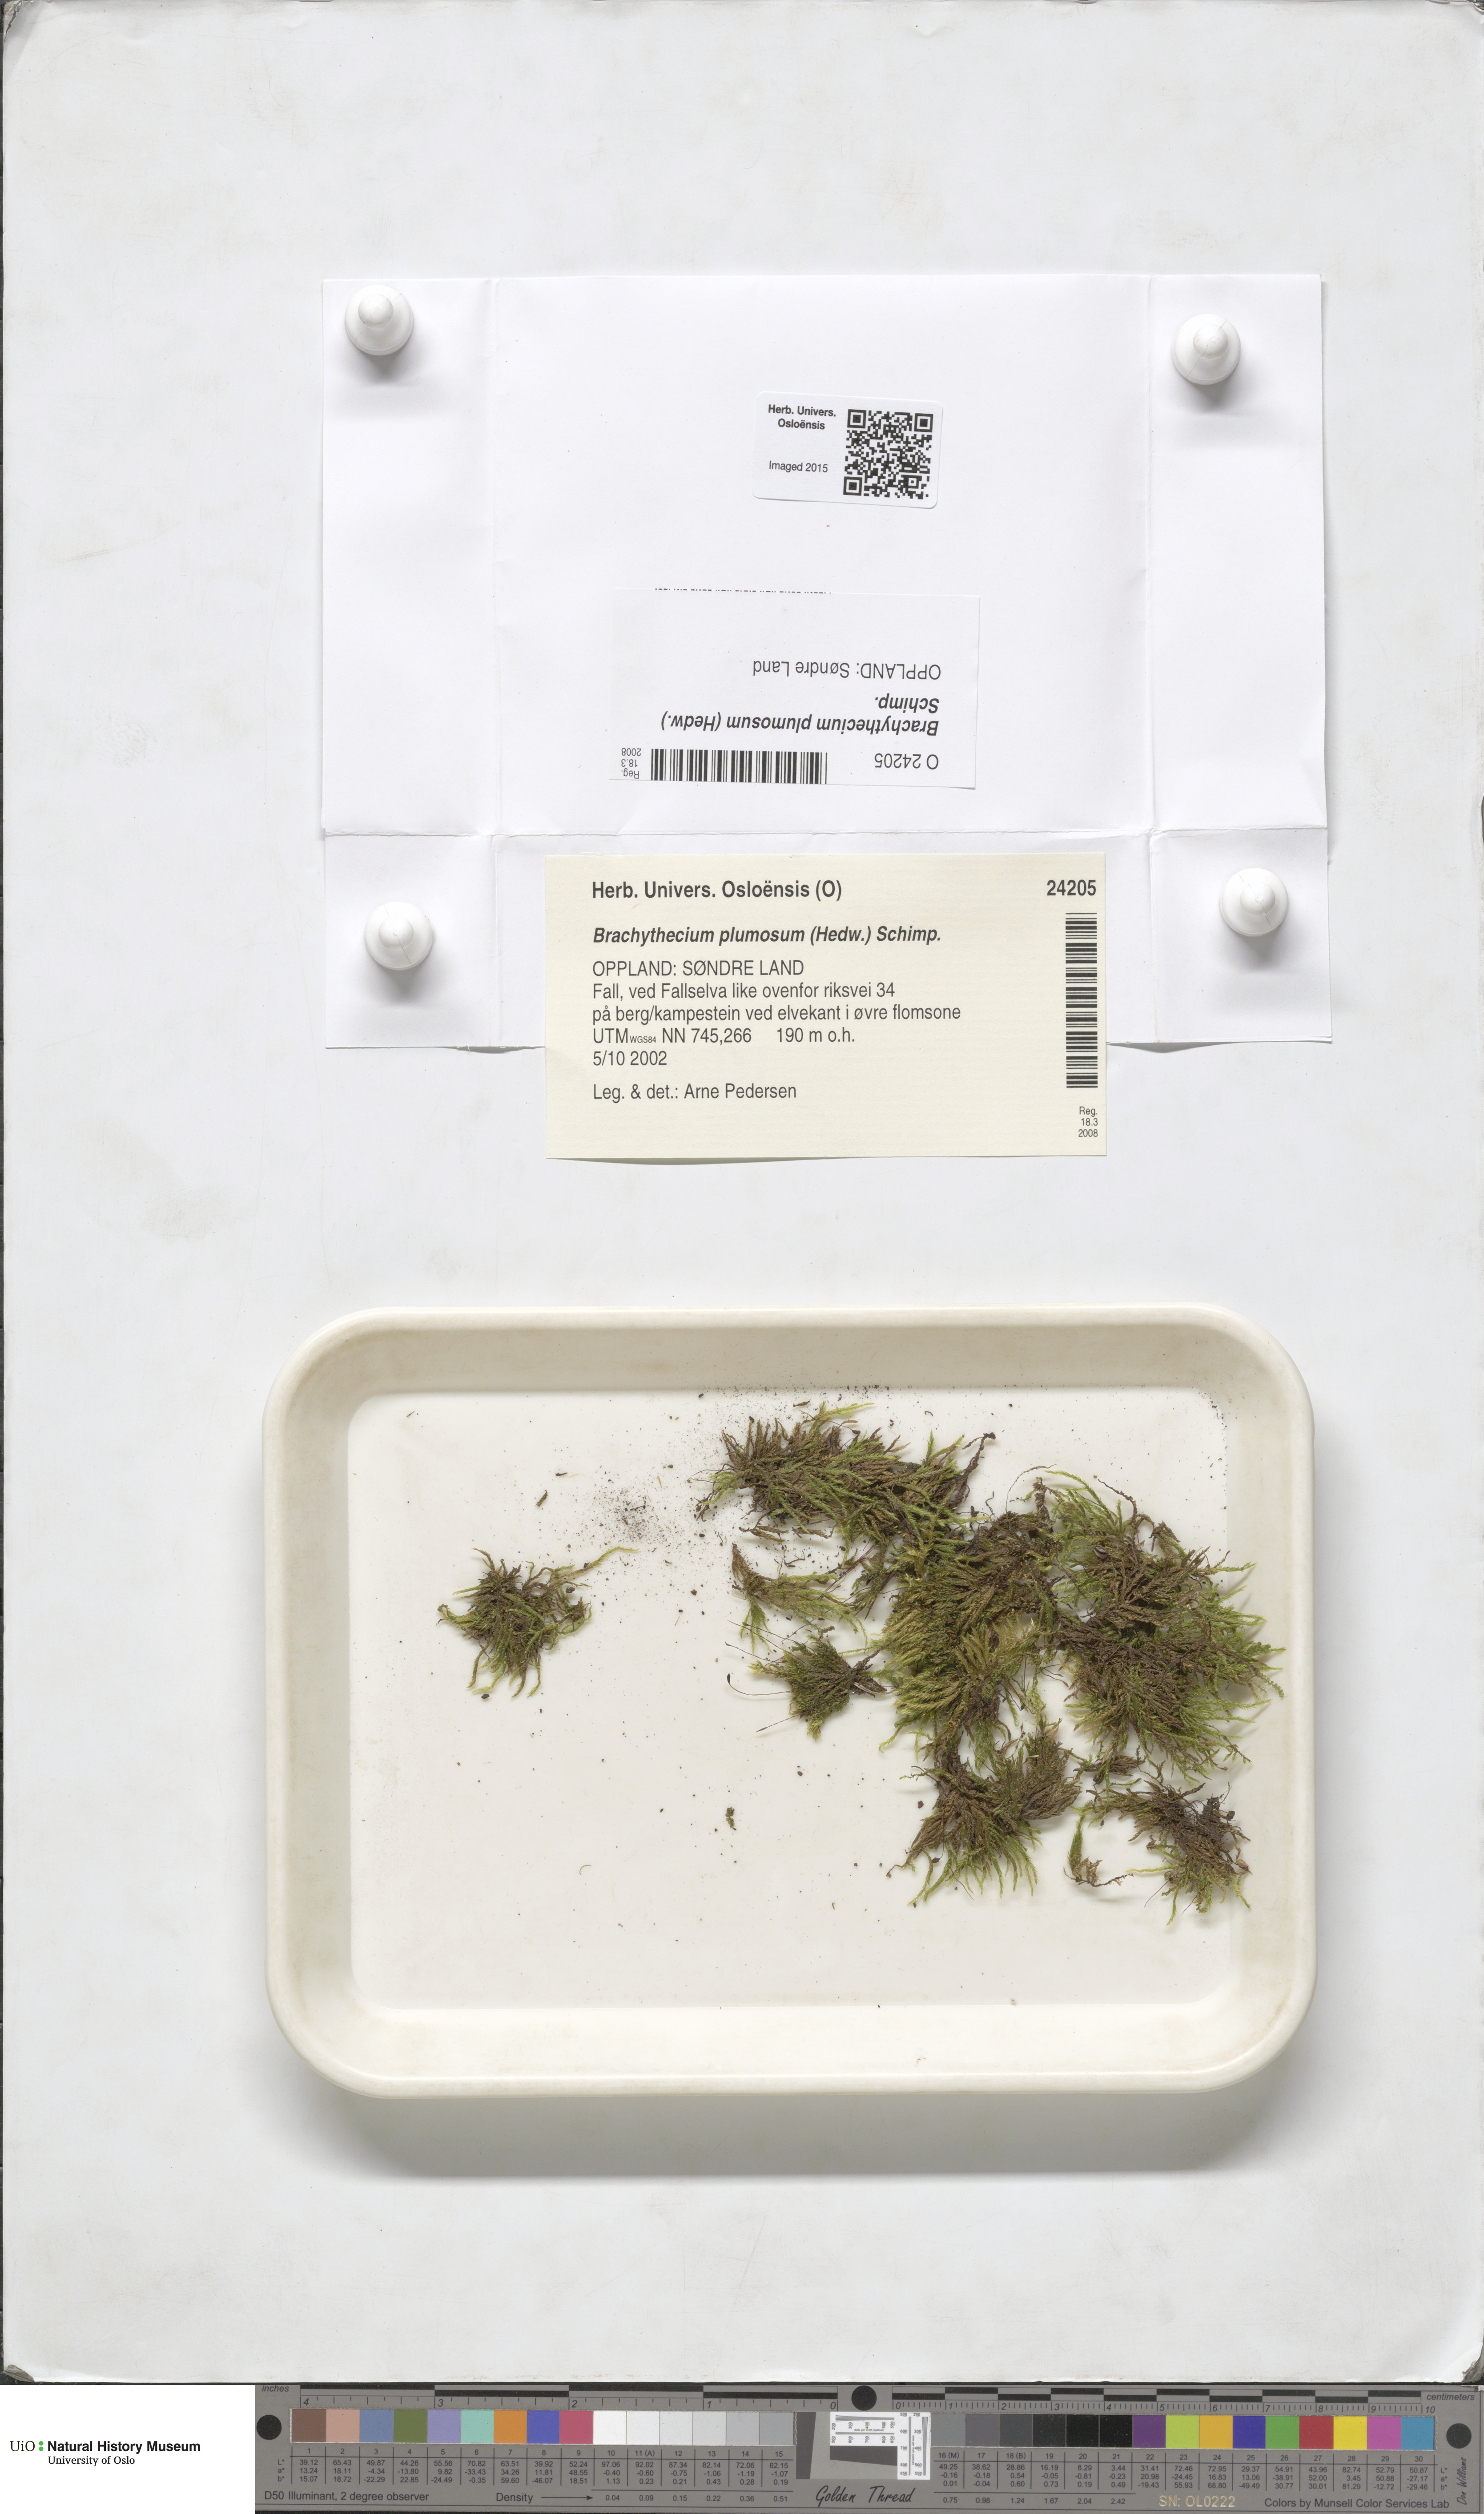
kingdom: Plantae
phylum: Bryophyta
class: Bryopsida
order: Hypnales
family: Brachytheciaceae
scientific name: Brachytheciaceae
